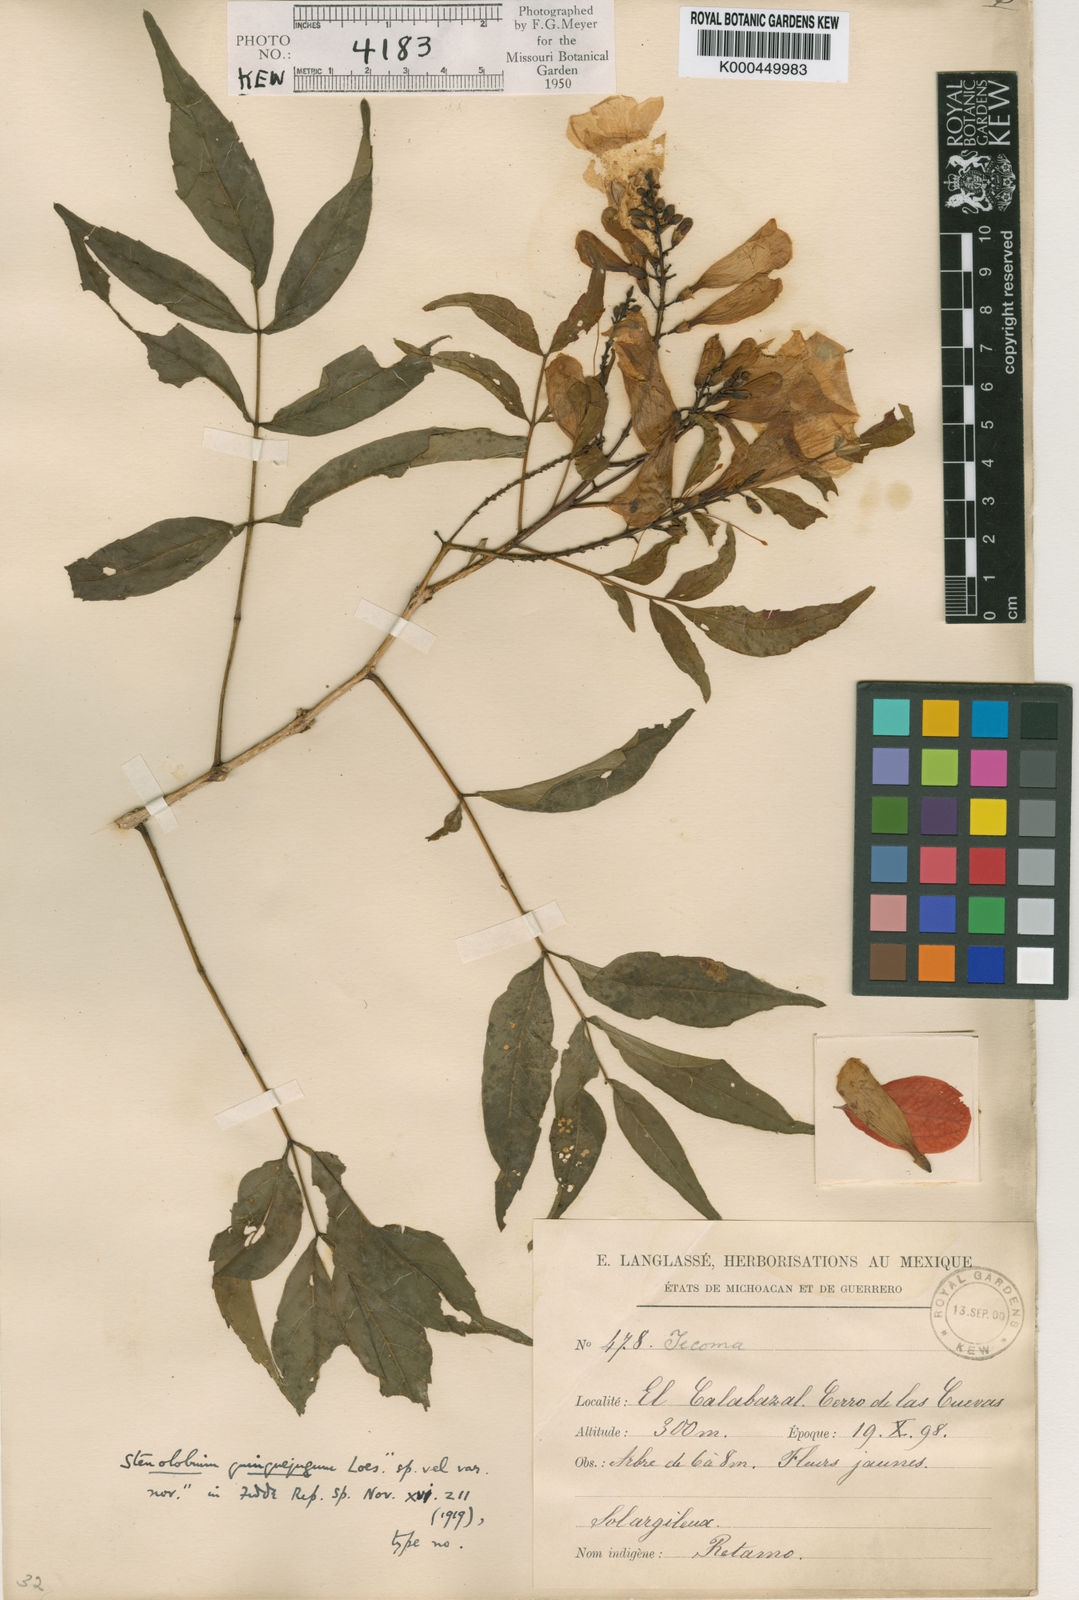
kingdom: Plantae
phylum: Tracheophyta
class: Magnoliopsida
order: Lamiales
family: Bignoniaceae
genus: Tecoma
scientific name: Tecoma stans
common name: Yellow trumpetbush
